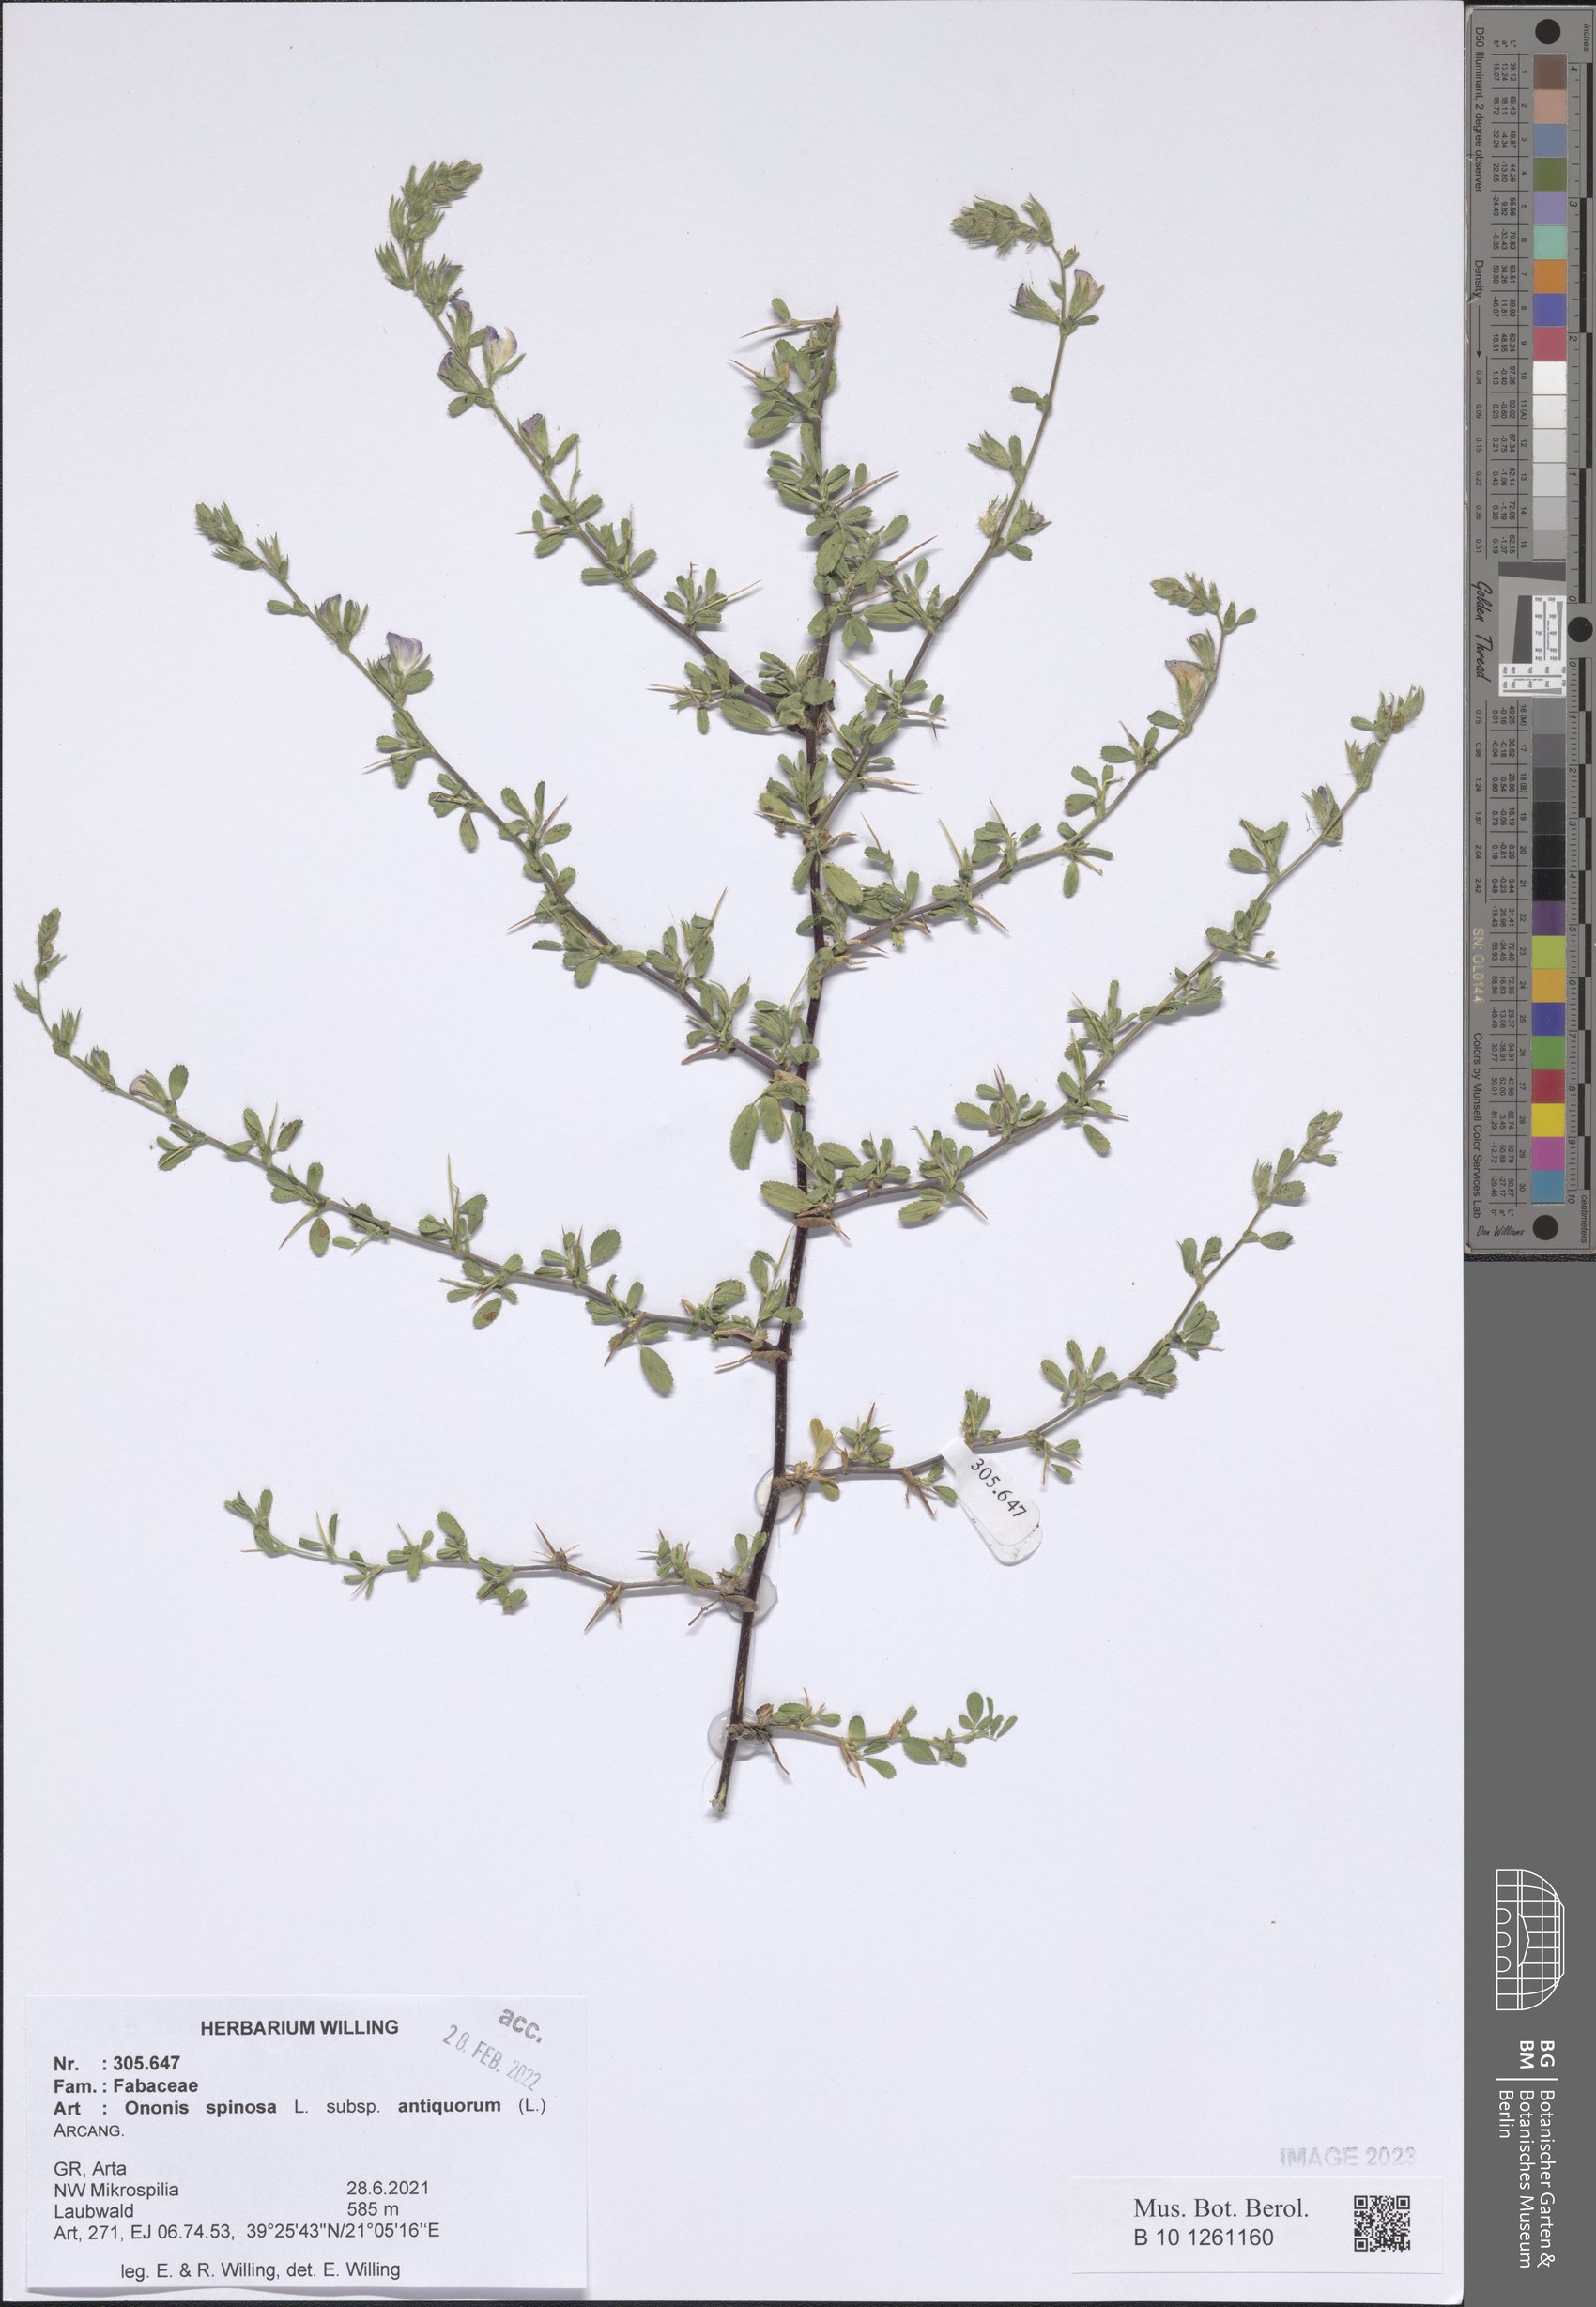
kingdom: Plantae
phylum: Tracheophyta
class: Magnoliopsida
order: Fabales
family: Fabaceae
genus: Ononis
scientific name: Ononis spinosa
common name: Spiny restharrow
